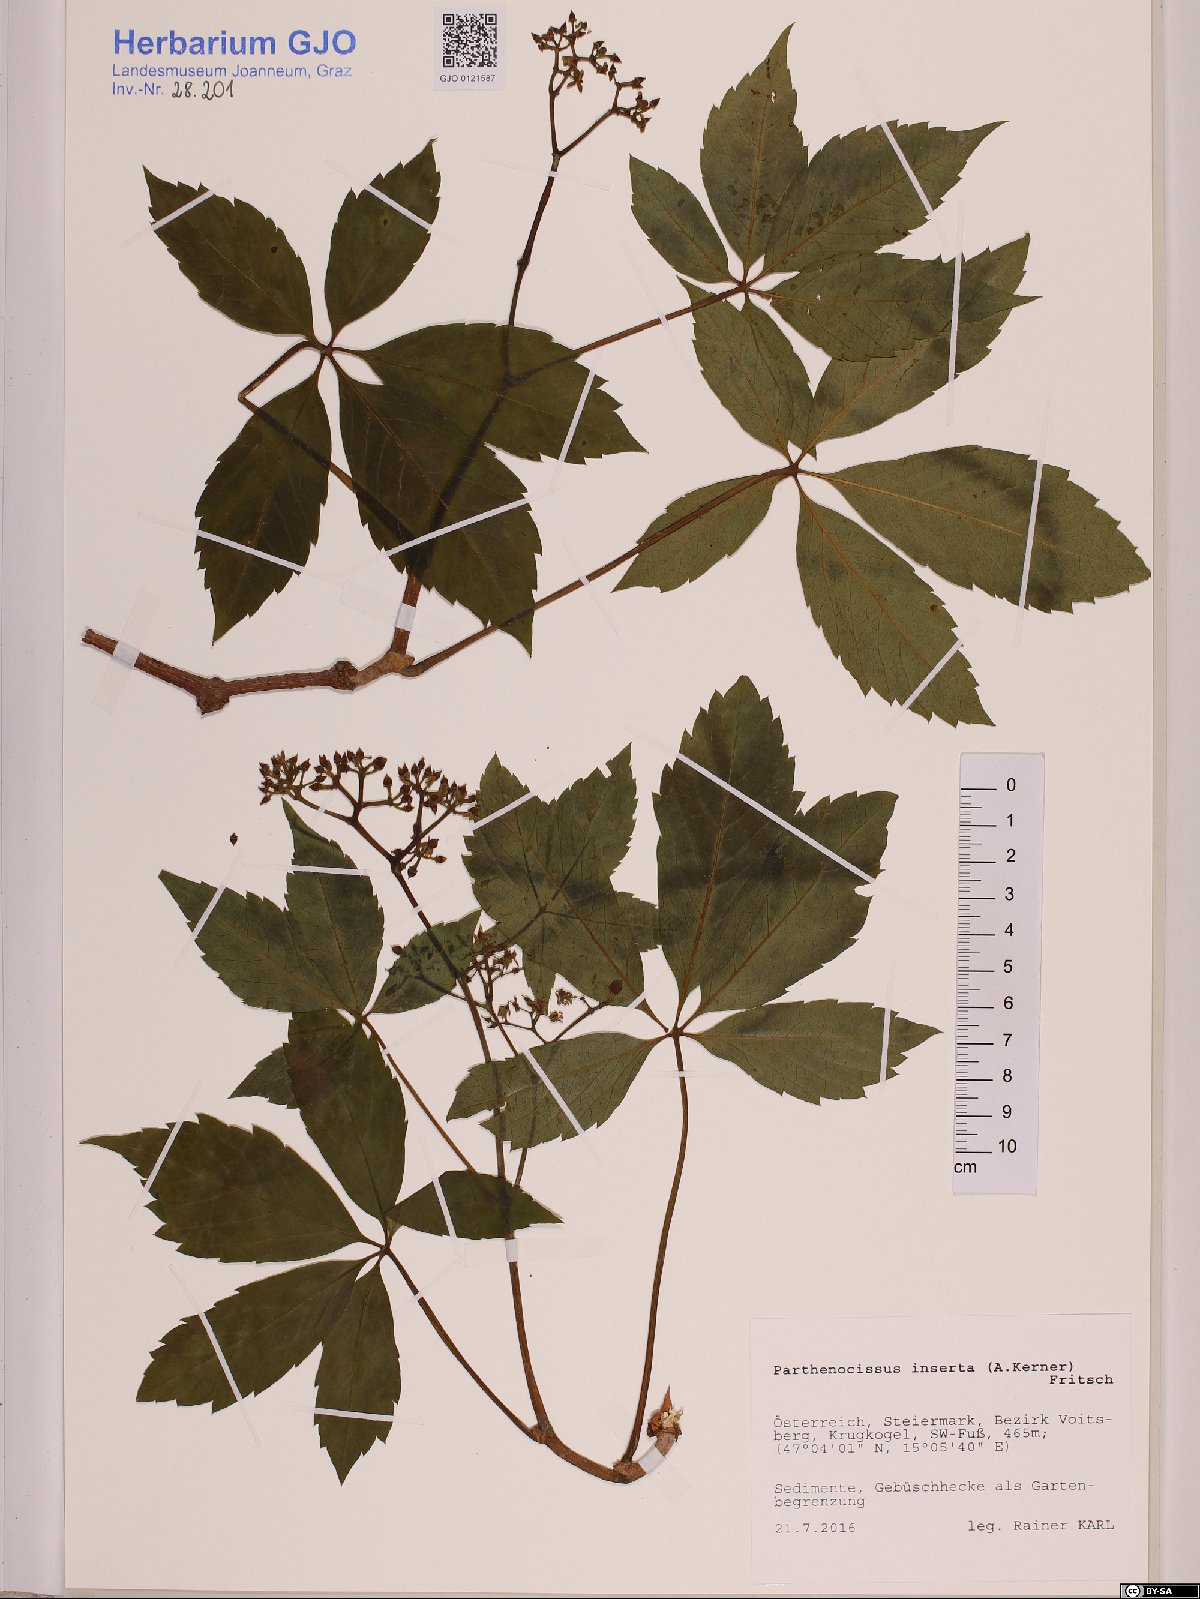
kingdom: Plantae
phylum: Tracheophyta
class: Magnoliopsida
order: Vitales
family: Vitaceae
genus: Parthenocissus
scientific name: Parthenocissus inserta
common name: False virginia-creeper
